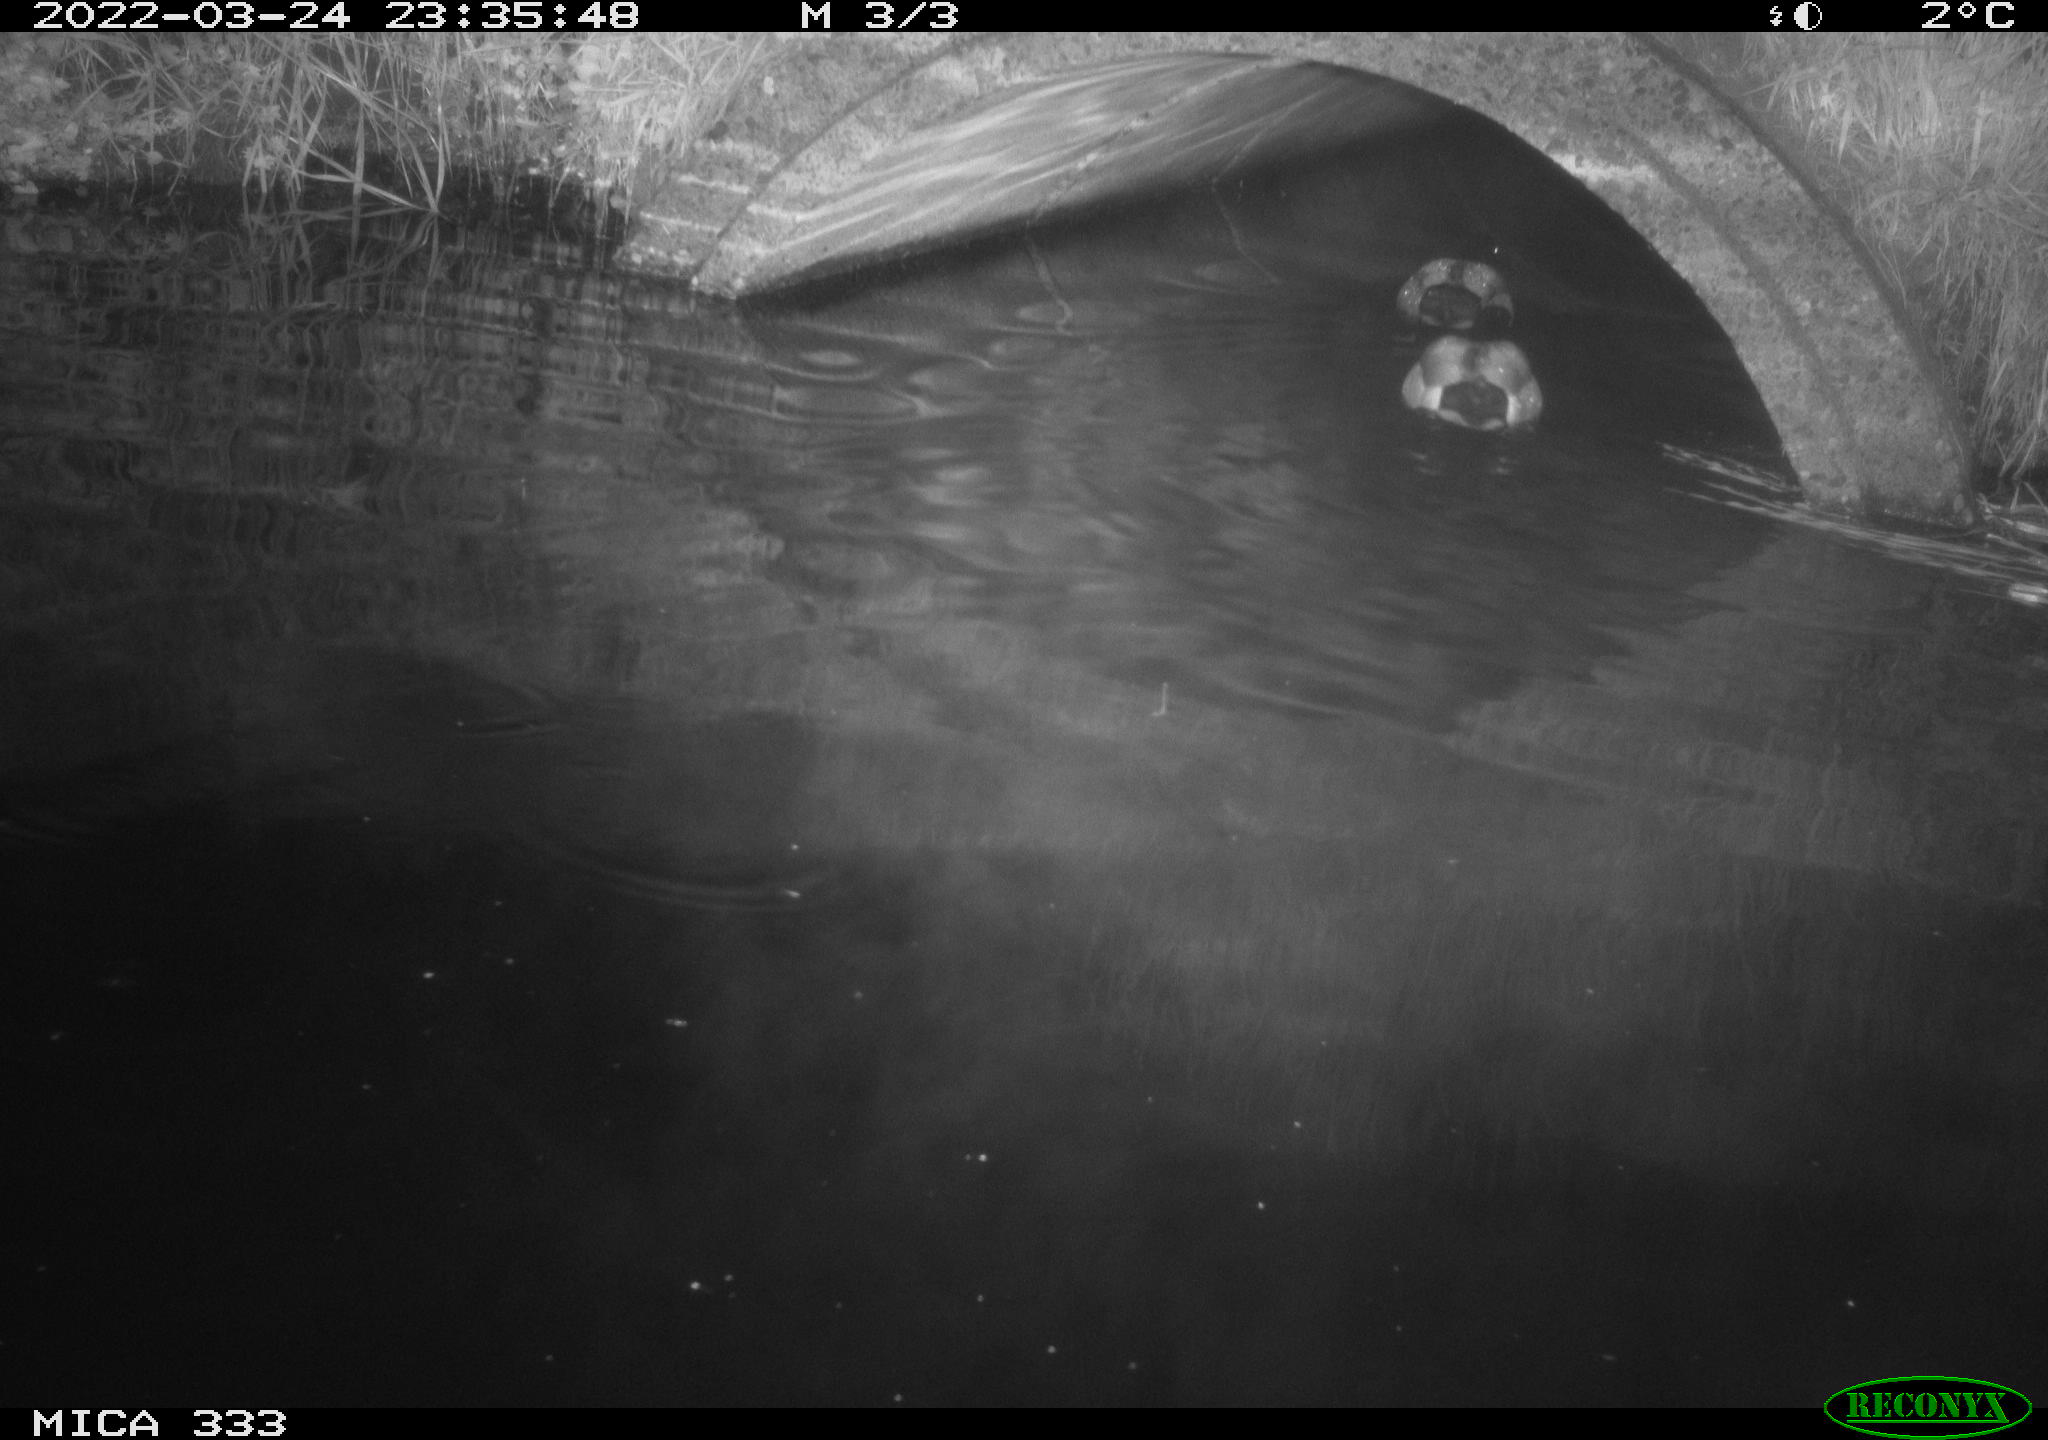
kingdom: Animalia
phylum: Chordata
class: Aves
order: Anseriformes
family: Anatidae
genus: Anas
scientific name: Anas platyrhynchos
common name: Mallard
